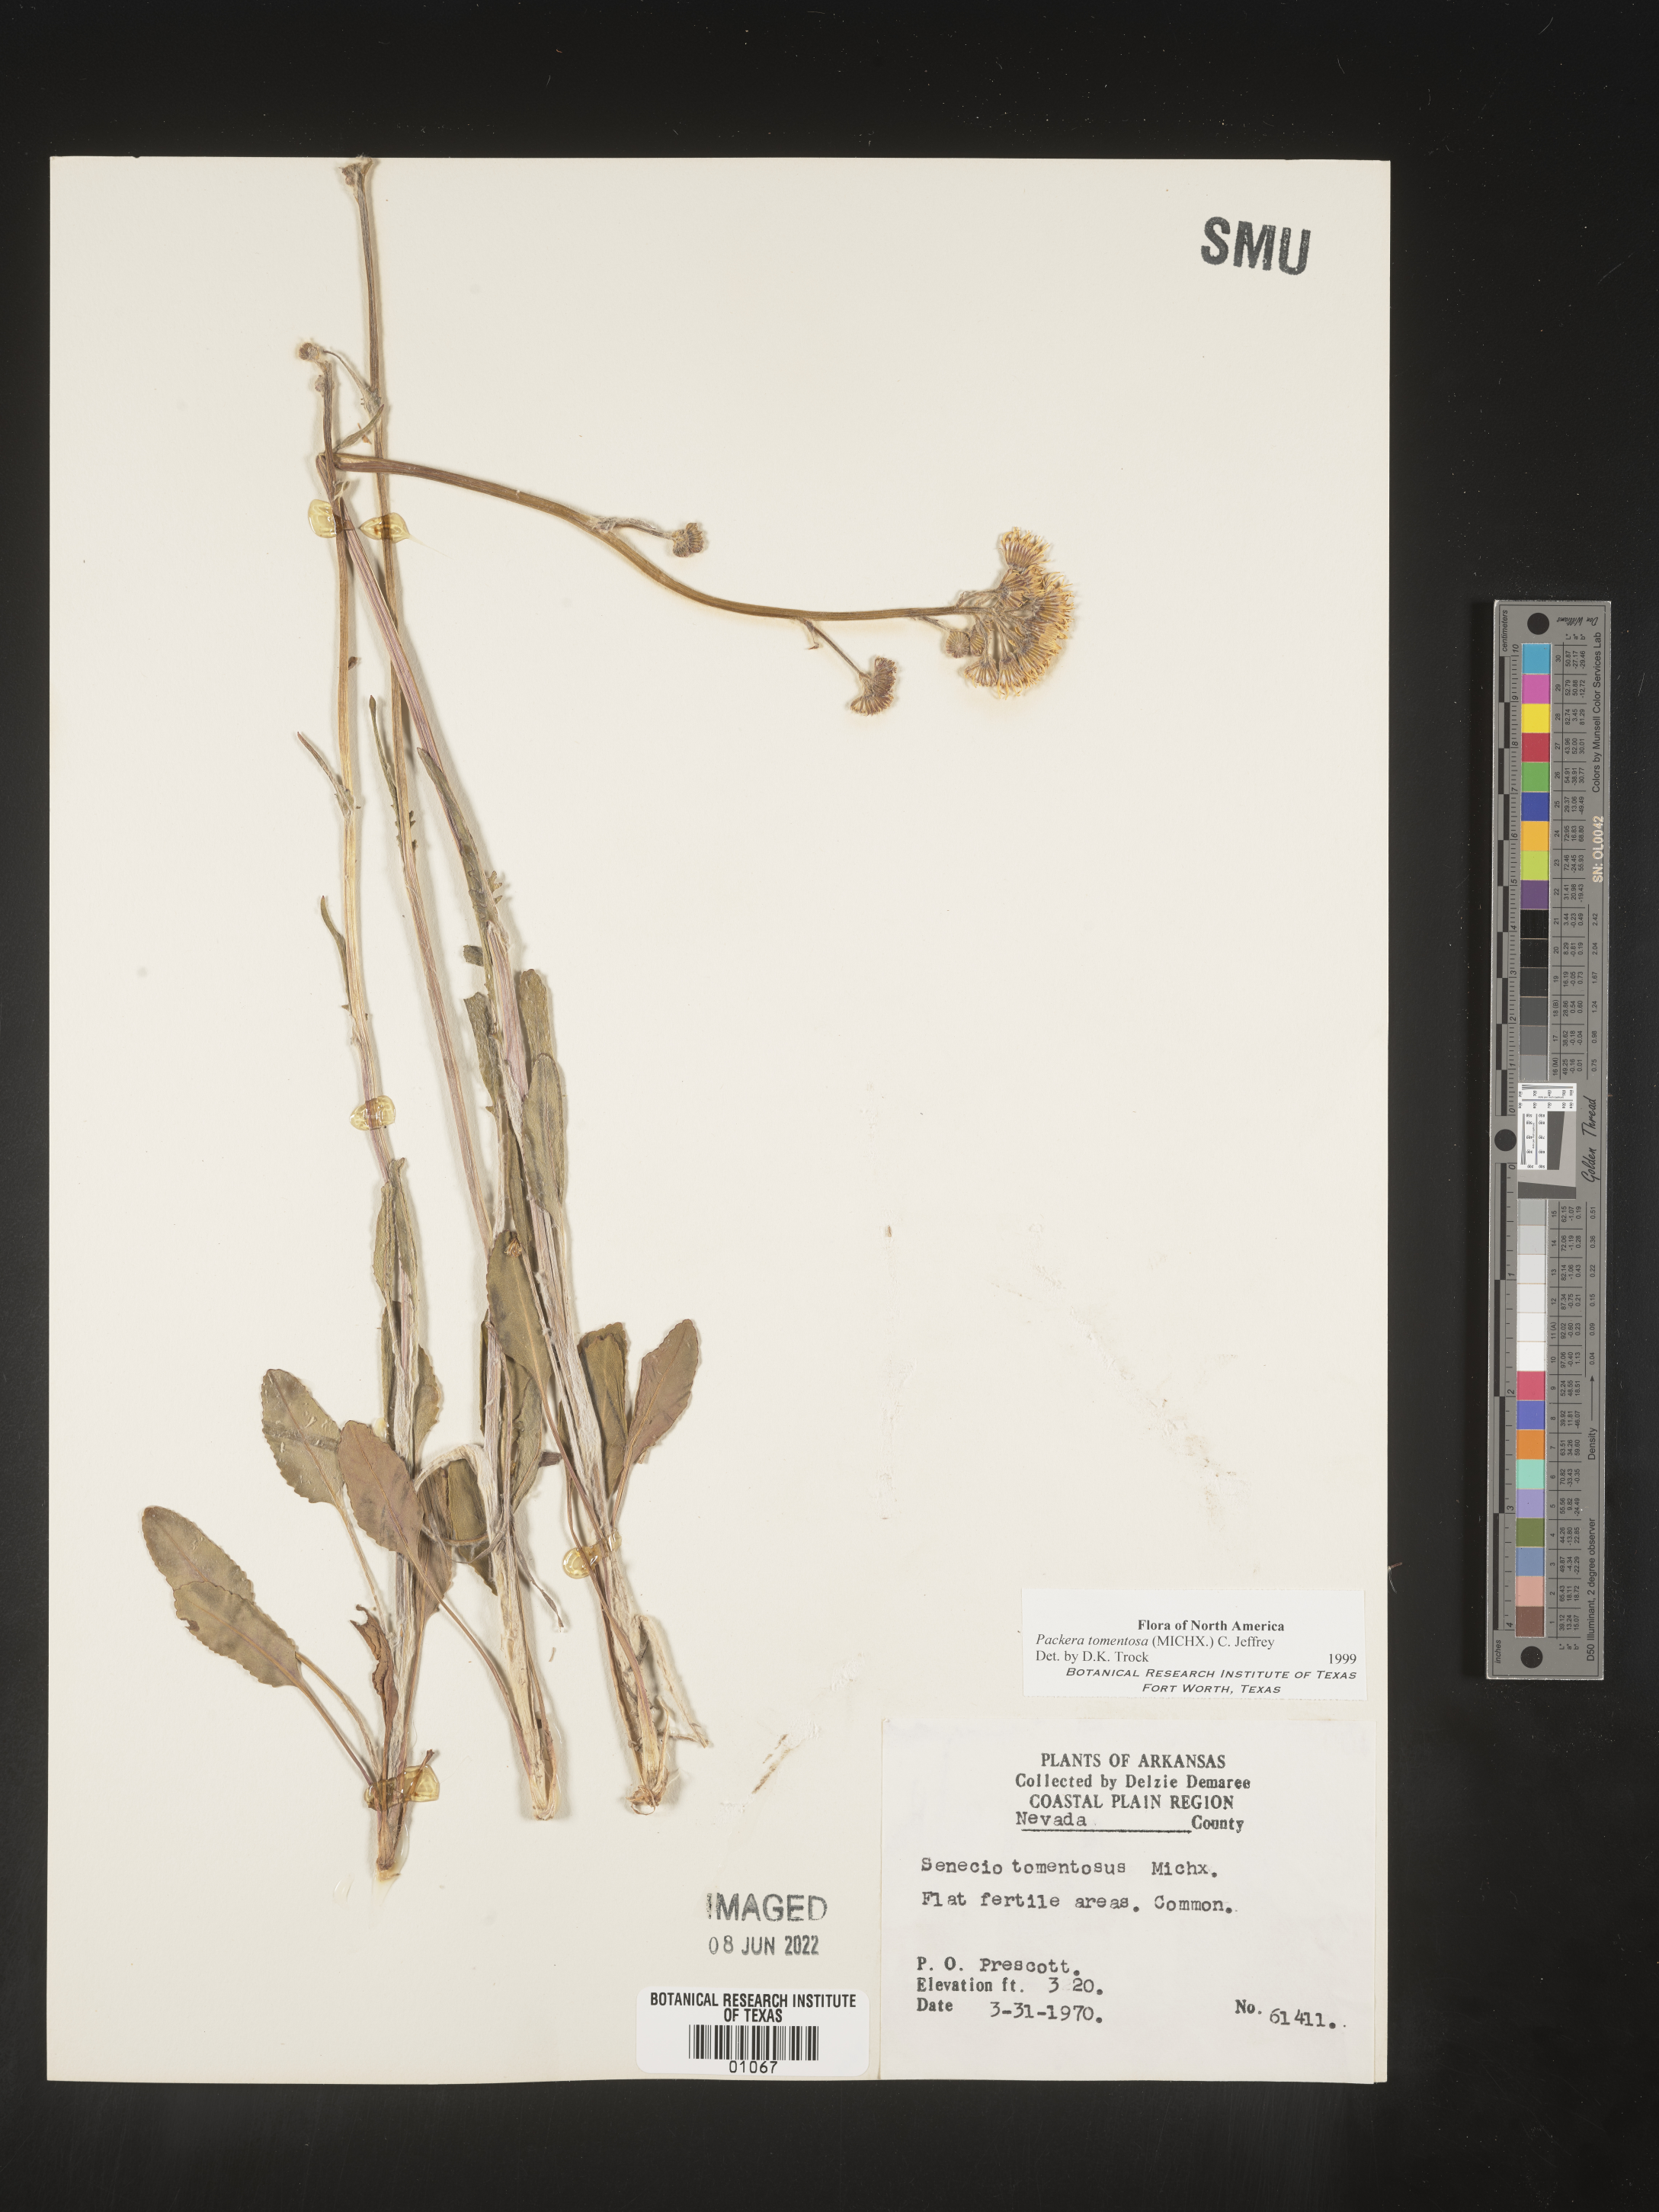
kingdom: Plantae
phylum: Tracheophyta
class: Magnoliopsida
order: Asterales
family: Asteraceae
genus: Packera
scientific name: Packera dubia
